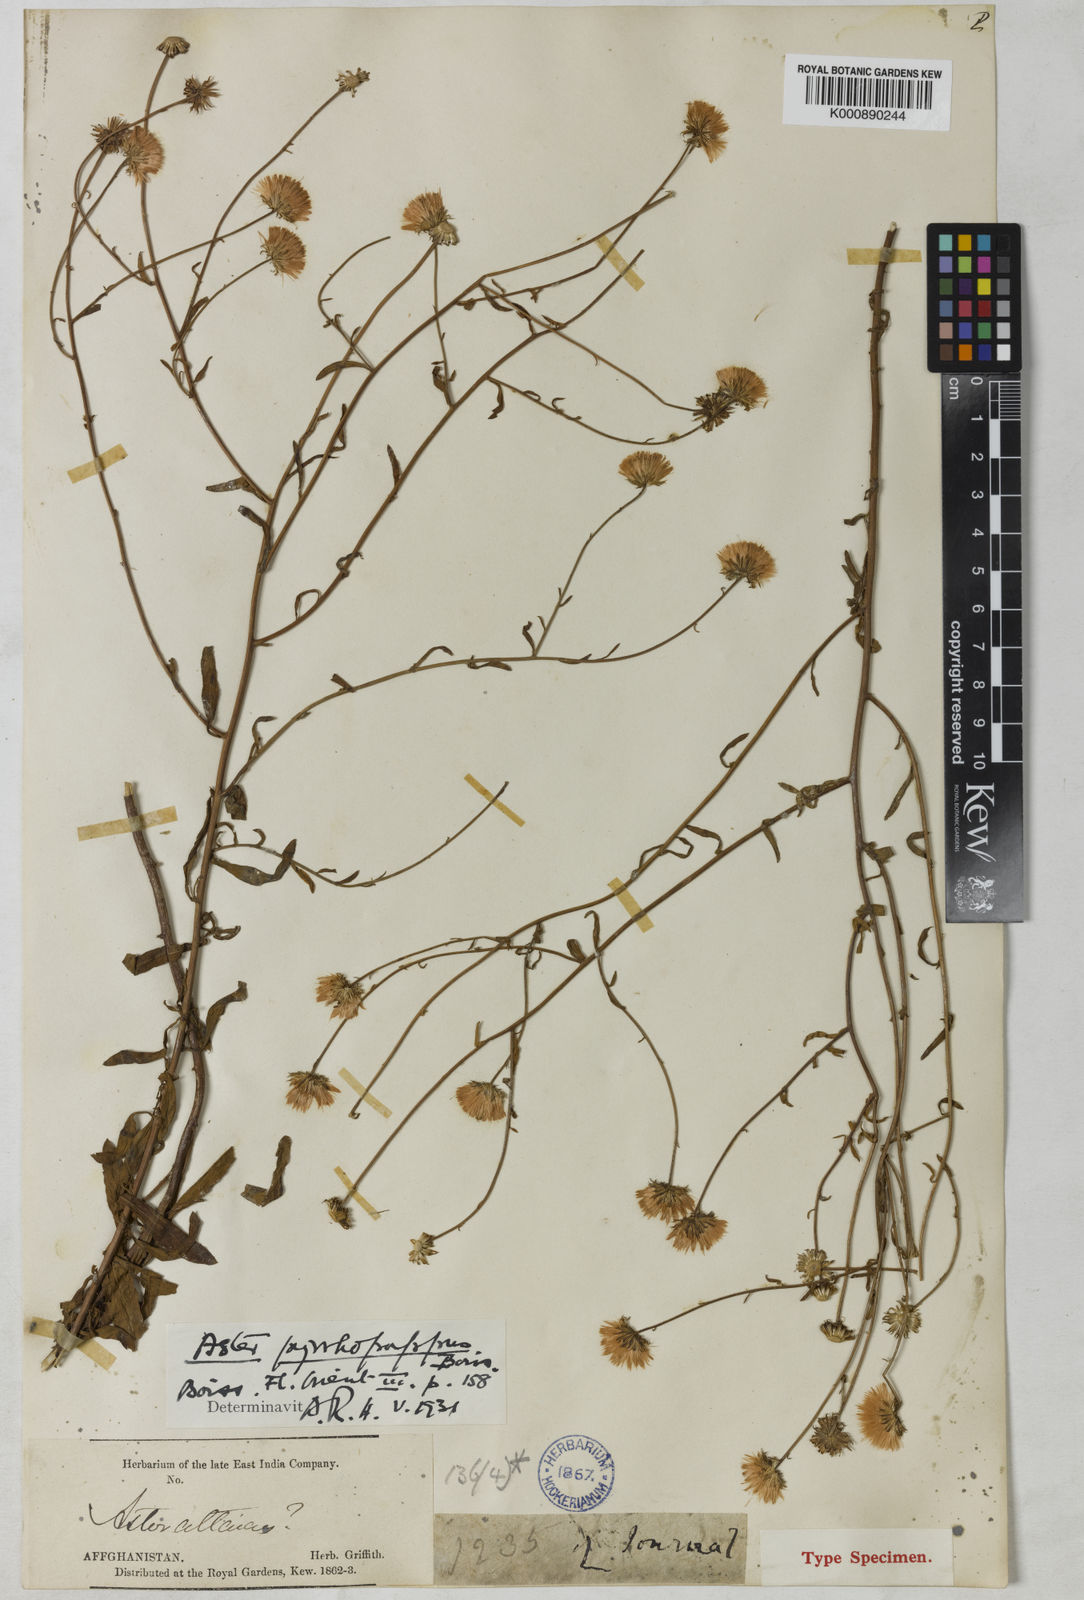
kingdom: Plantae
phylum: Tracheophyta
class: Magnoliopsida
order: Asterales
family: Asteraceae
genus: Aster
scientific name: Aster
